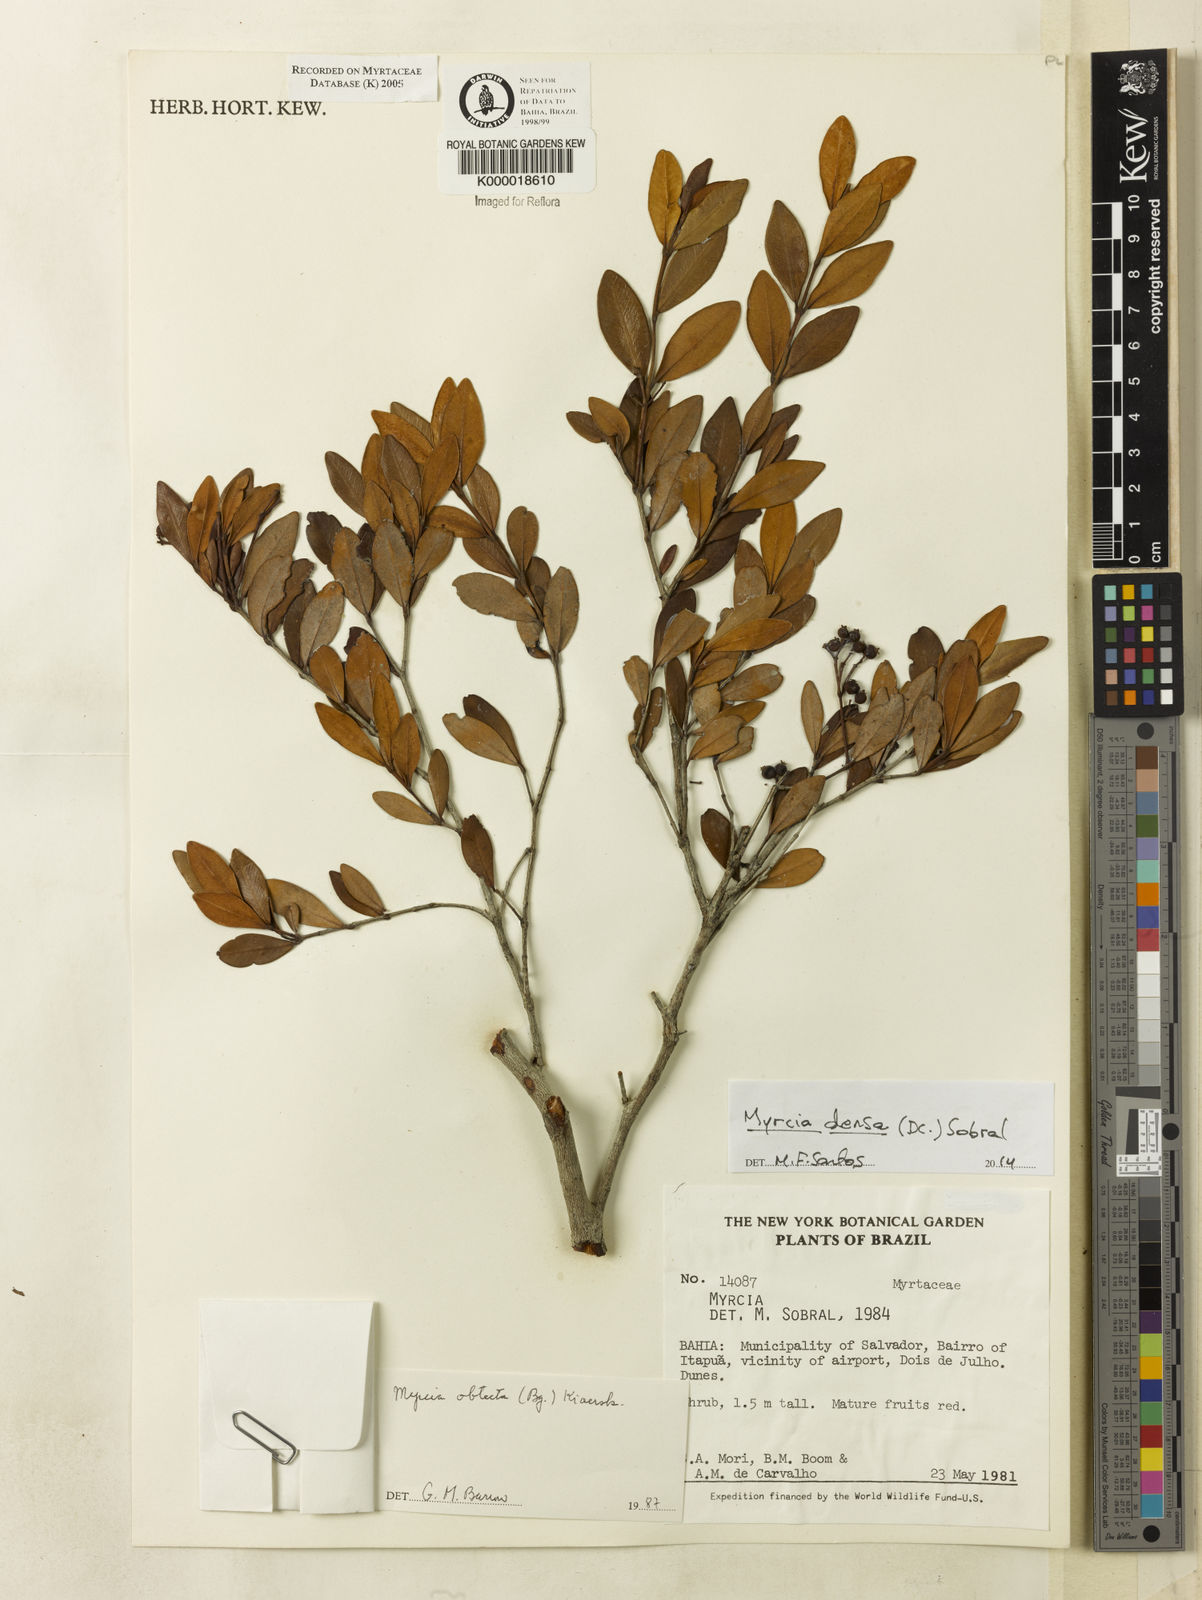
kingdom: Plantae
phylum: Tracheophyta
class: Magnoliopsida
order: Myrtales
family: Myrtaceae
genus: Myrcia
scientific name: Myrcia guianensis
